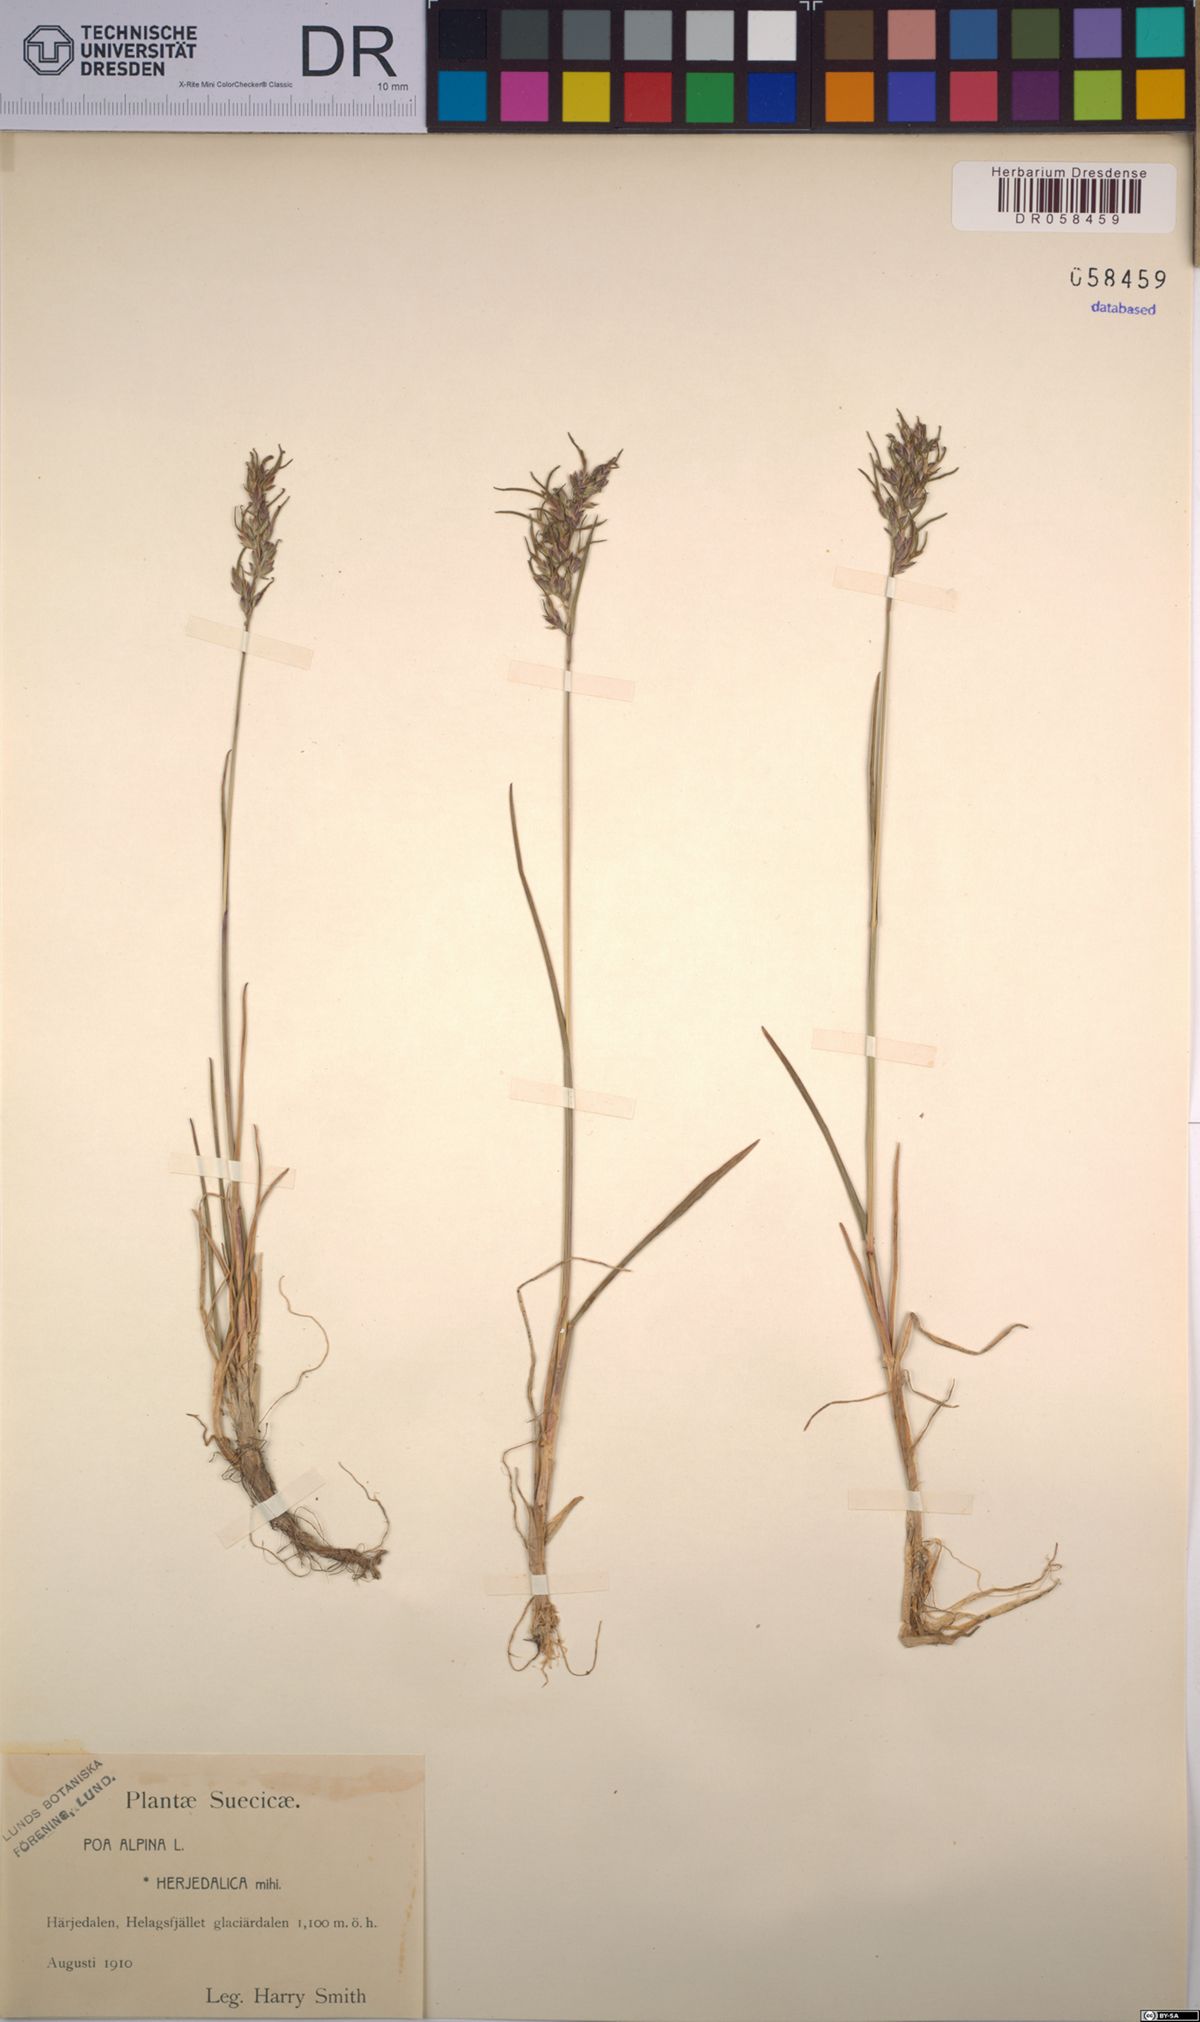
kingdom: Plantae
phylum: Tracheophyta
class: Liliopsida
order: Poales
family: Poaceae
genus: Poa
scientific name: Poa alpina
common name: Alpine bluegrass
